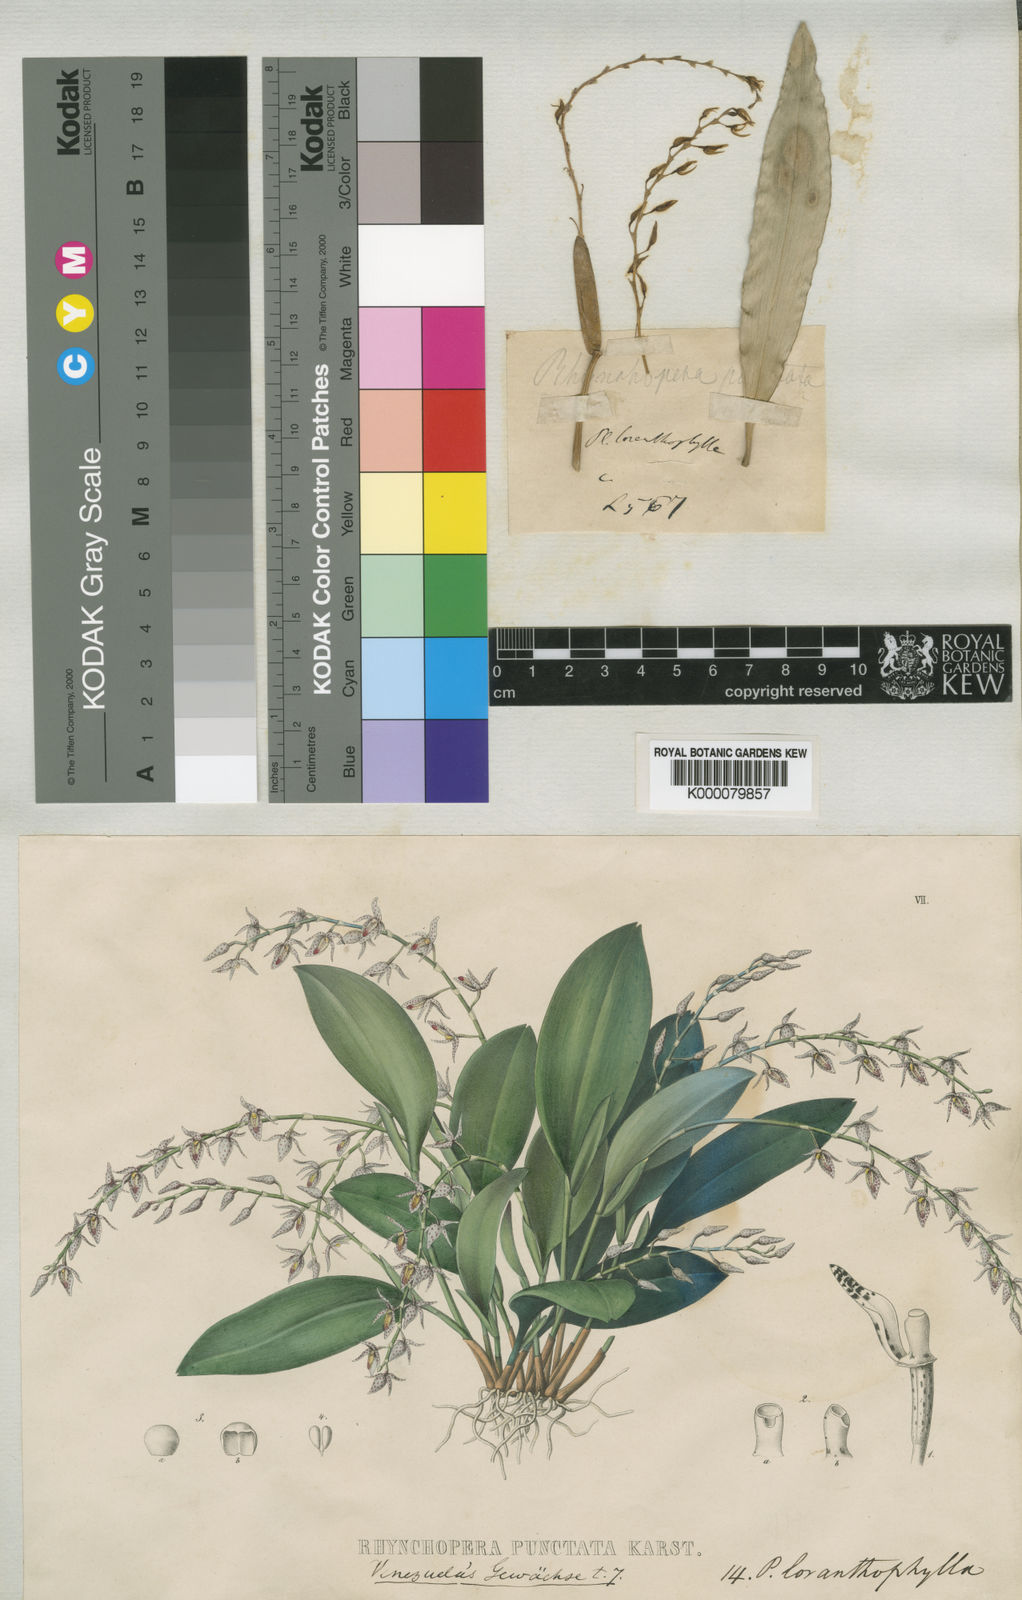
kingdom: Plantae
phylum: Tracheophyta
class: Liliopsida
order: Asparagales
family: Orchidaceae
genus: Pleurothallis
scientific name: Pleurothallis loranthophylla
